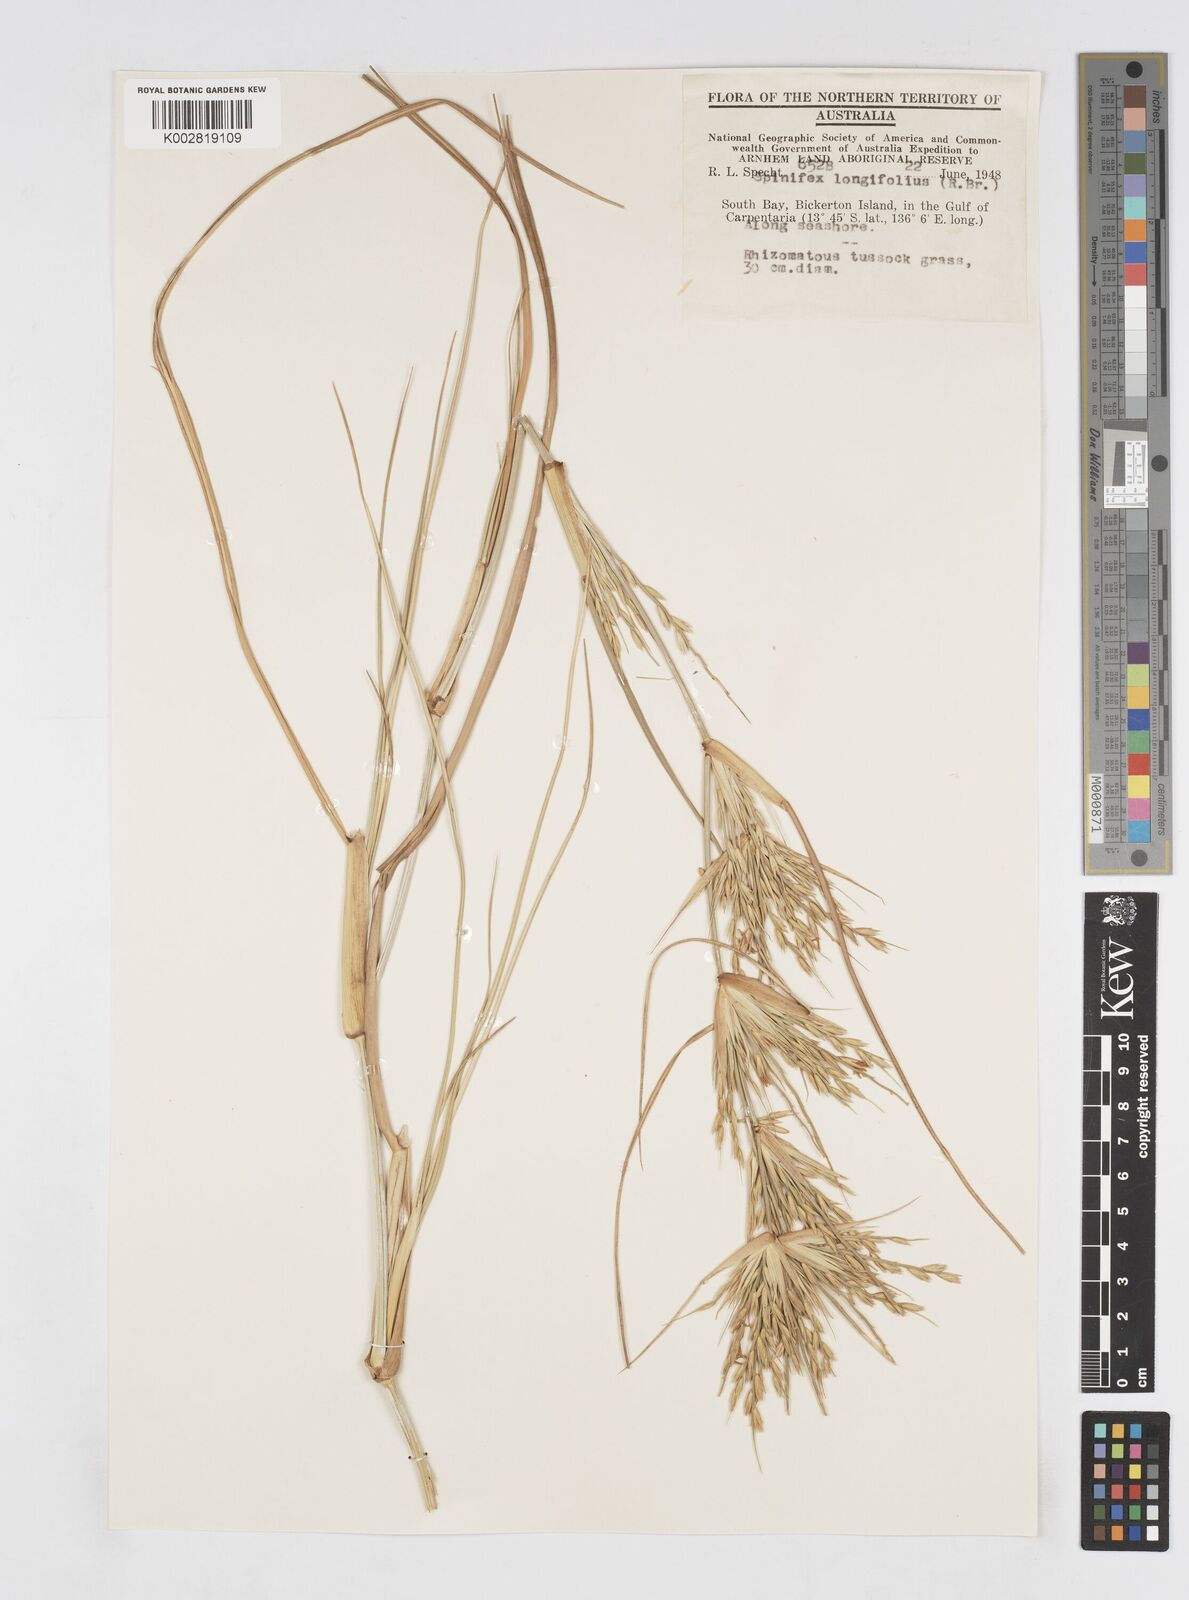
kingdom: Plantae
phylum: Tracheophyta
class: Liliopsida
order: Poales
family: Poaceae
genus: Spinifex
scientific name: Spinifex longifolius
